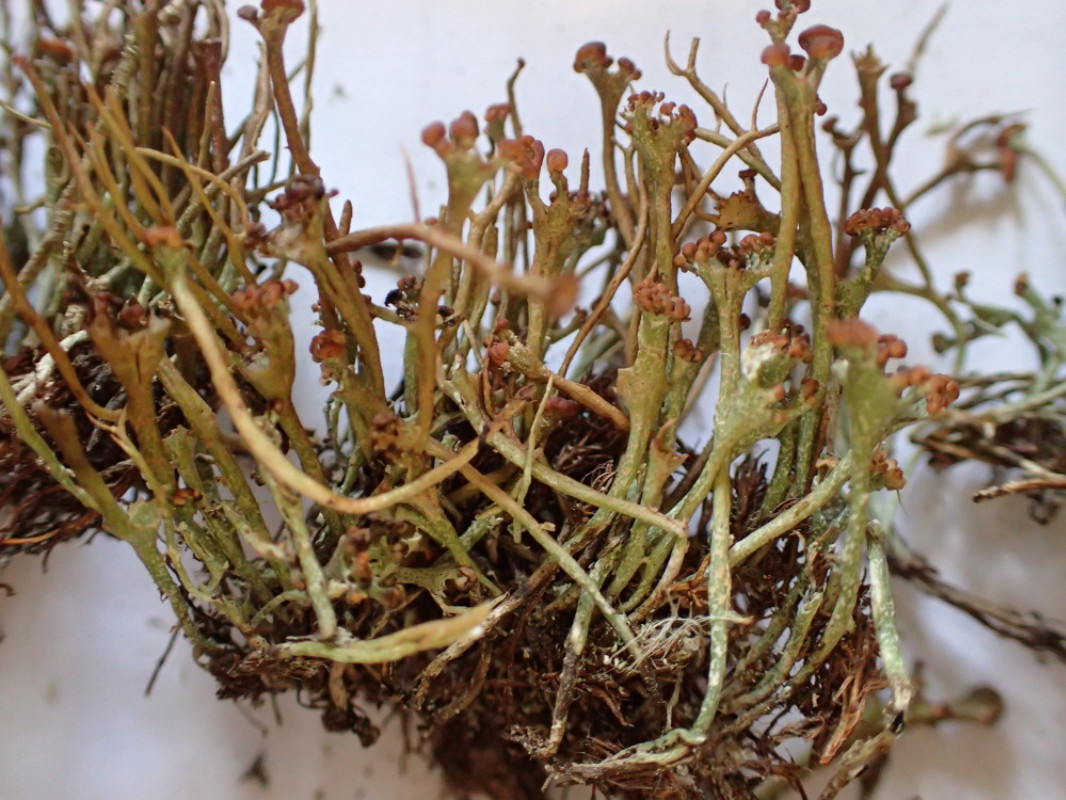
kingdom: Fungi
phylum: Ascomycota
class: Lecanoromycetes
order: Lecanorales
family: Cladoniaceae
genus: Cladonia
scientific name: Cladonia gracilis
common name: slank bægerlav
